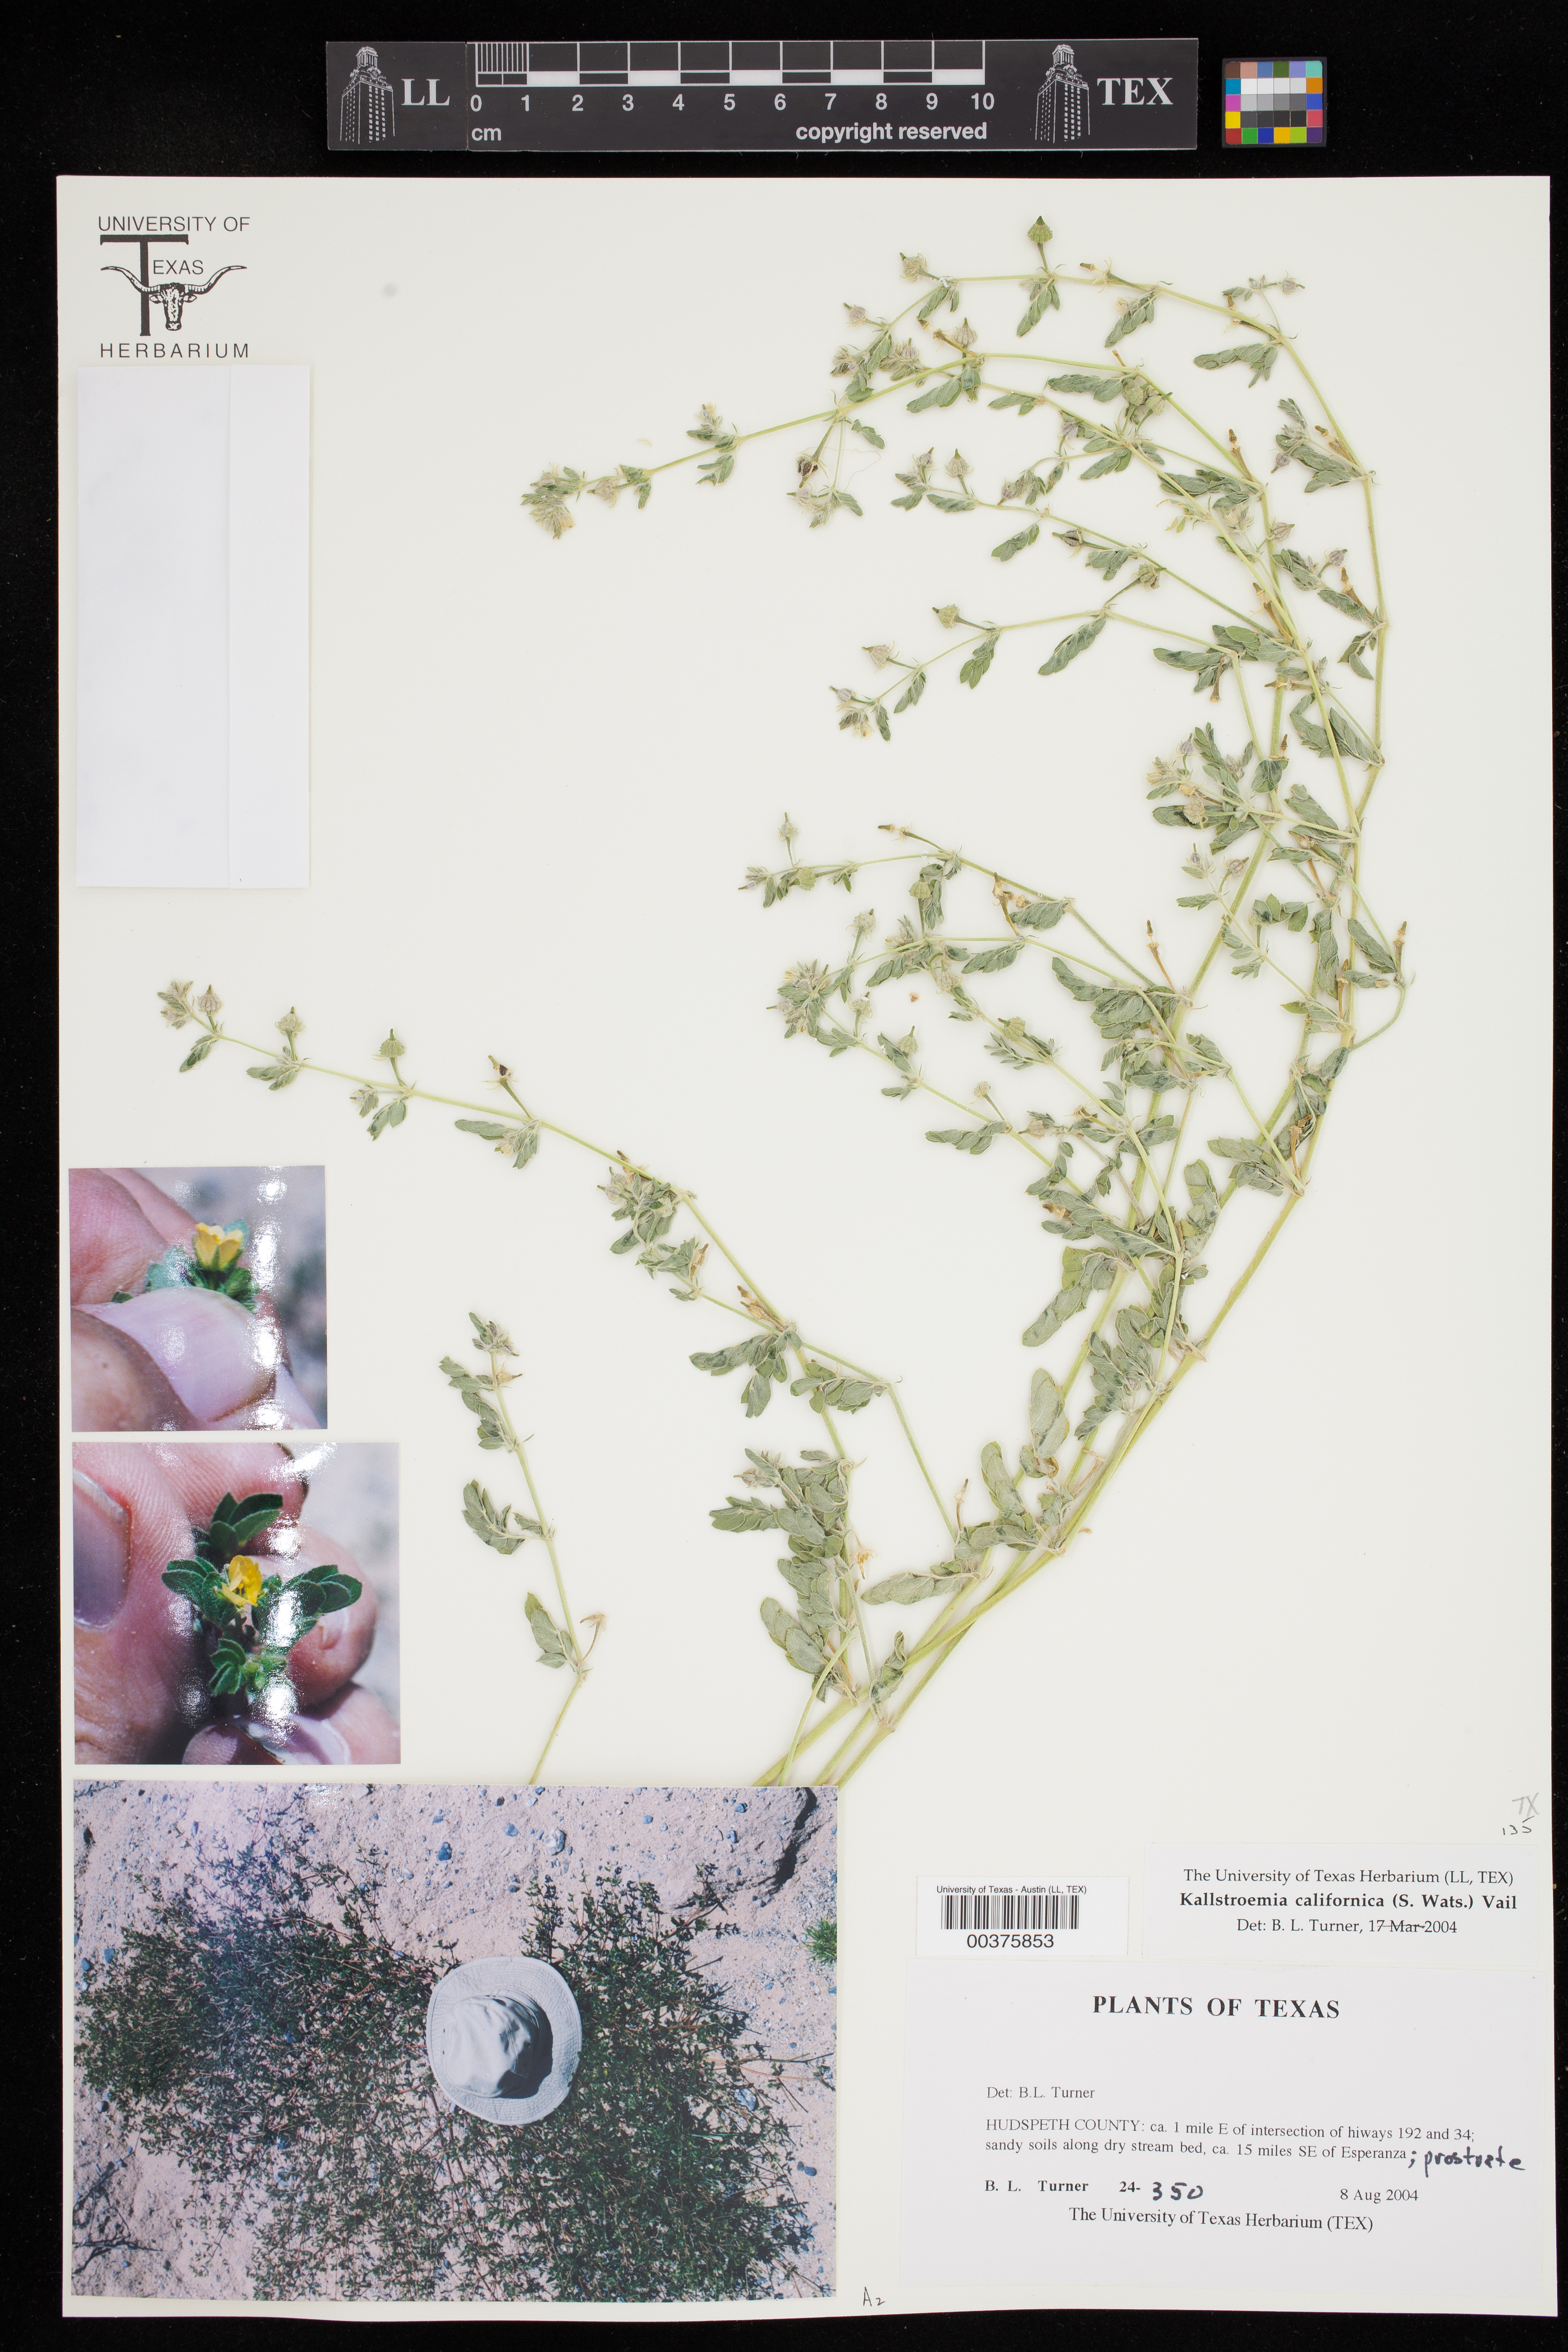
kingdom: Plantae
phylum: Tracheophyta
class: Magnoliopsida
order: Zygophyllales
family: Zygophyllaceae
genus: Kallstroemia
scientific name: Kallstroemia californica
